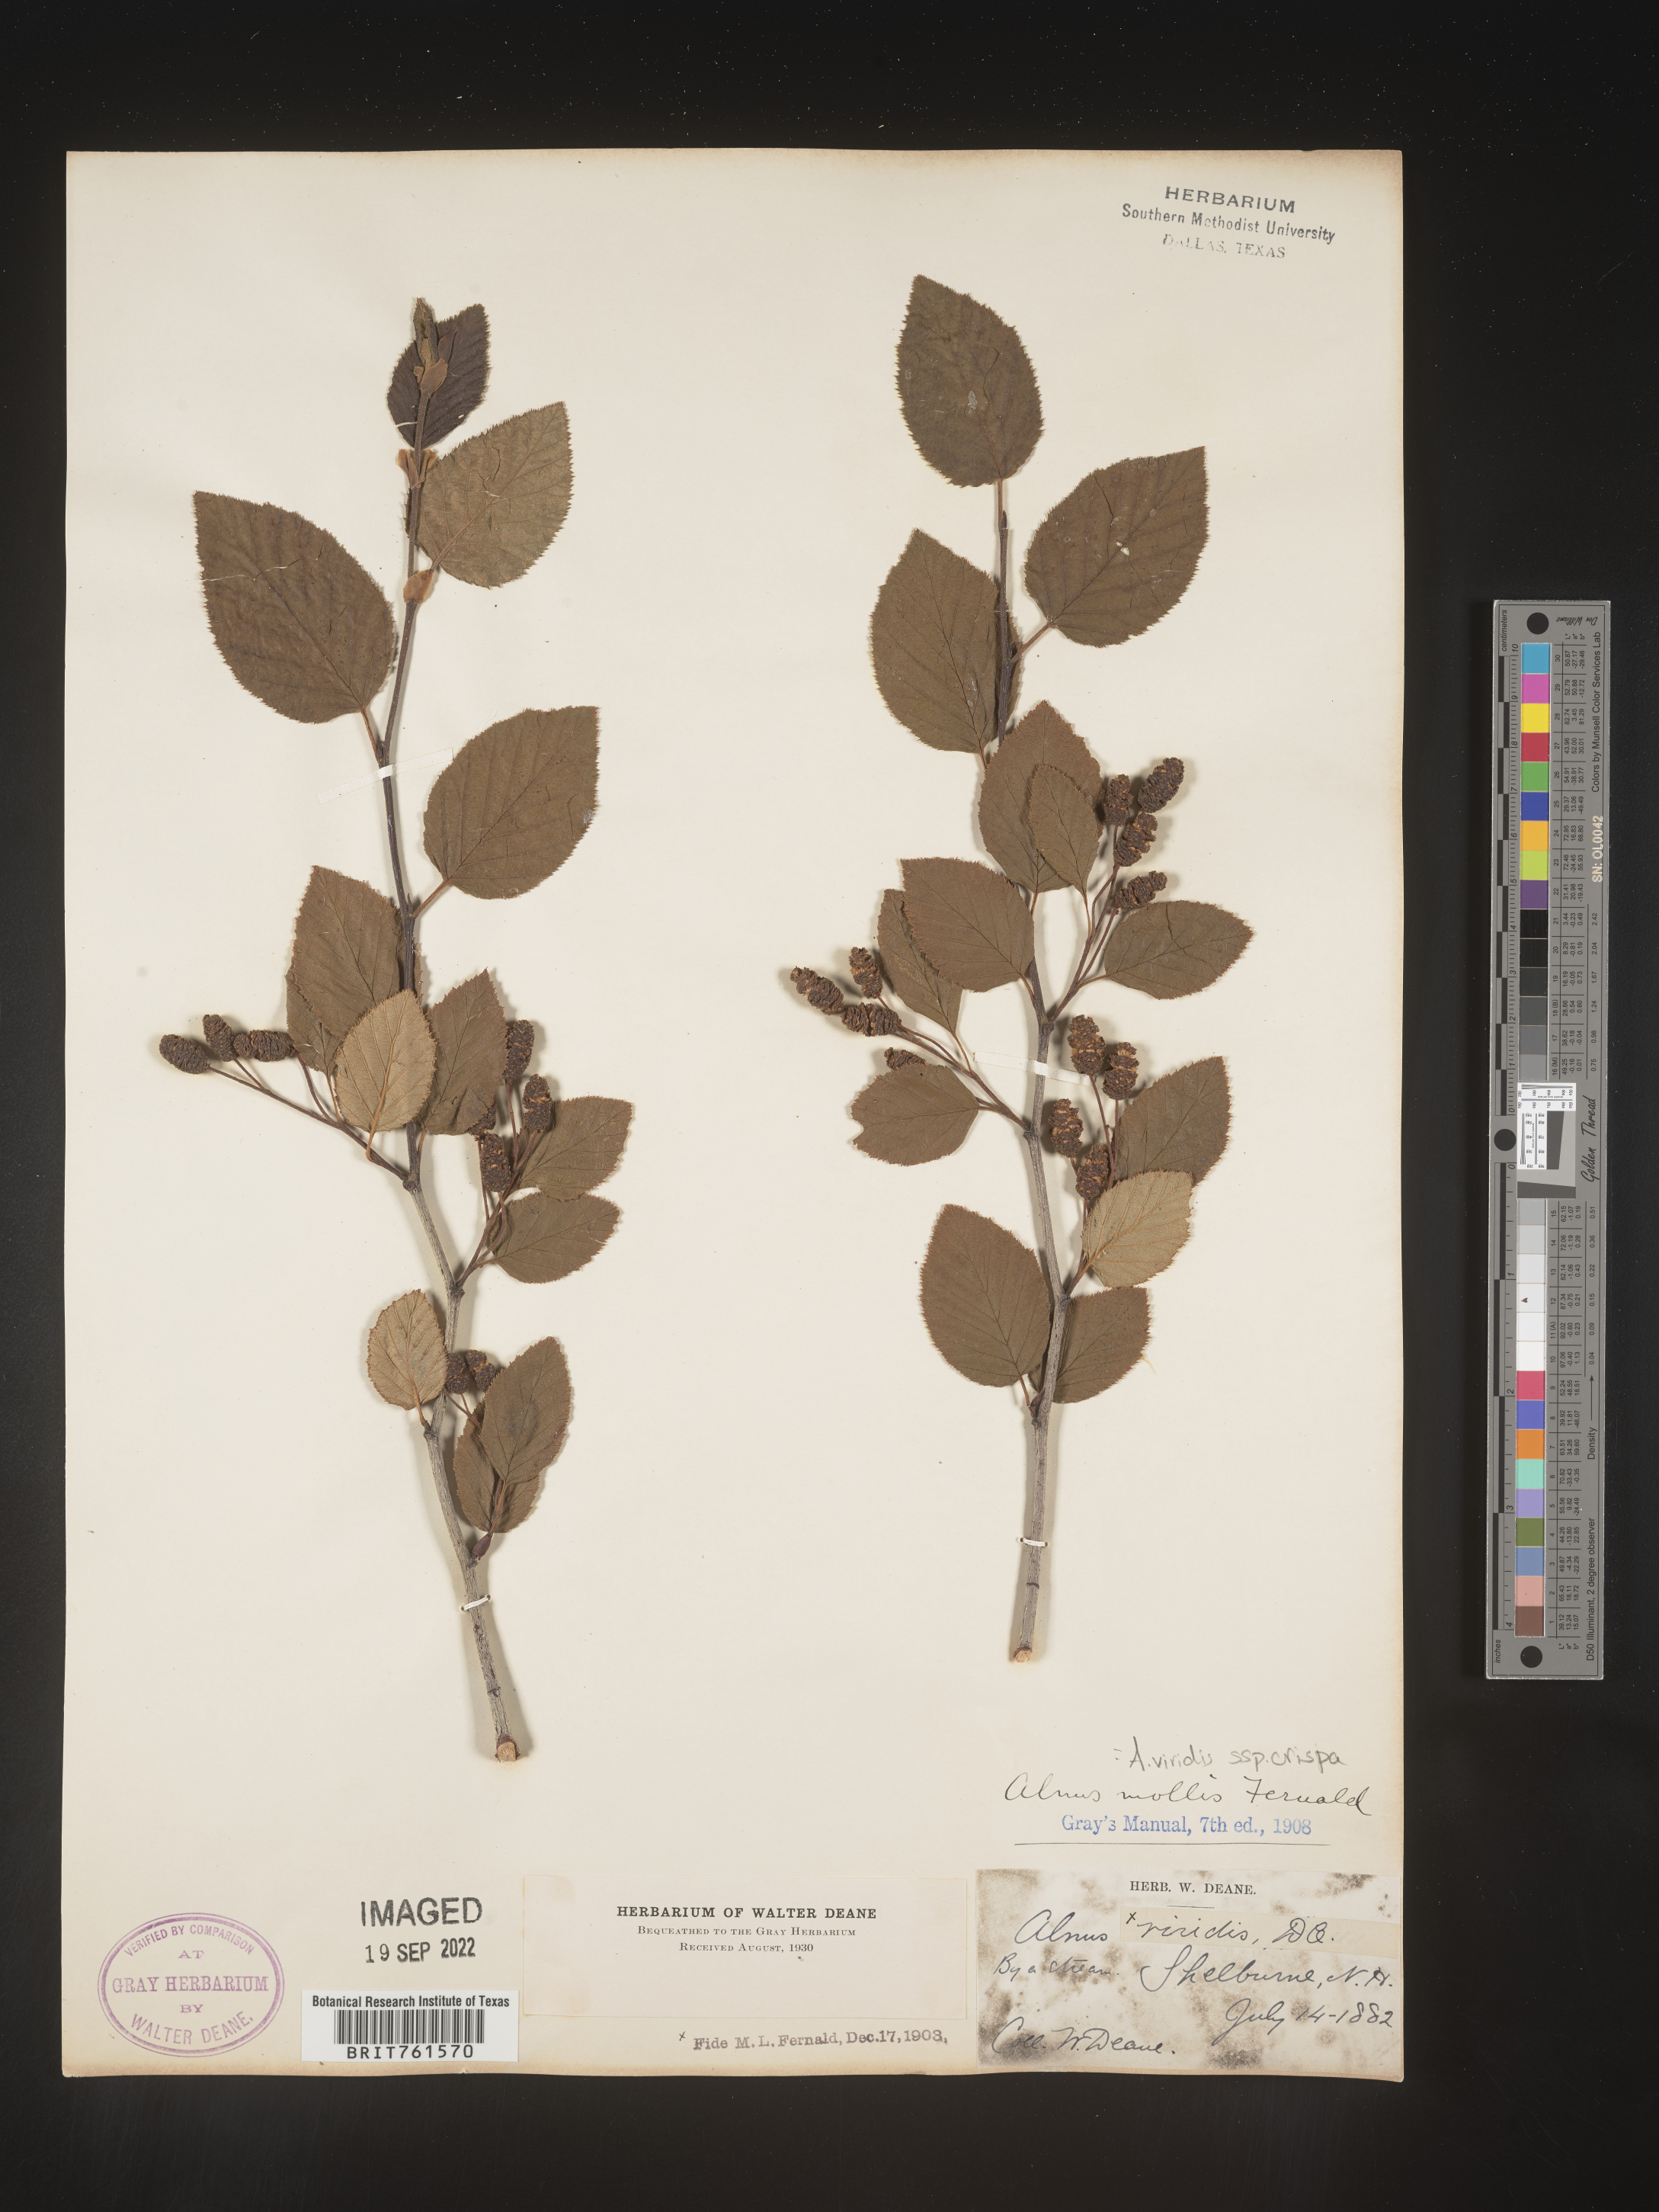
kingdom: Plantae
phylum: Tracheophyta
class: Magnoliopsida
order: Fagales
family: Betulaceae
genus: Alnus
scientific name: Alnus alnobetula
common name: Green alder
